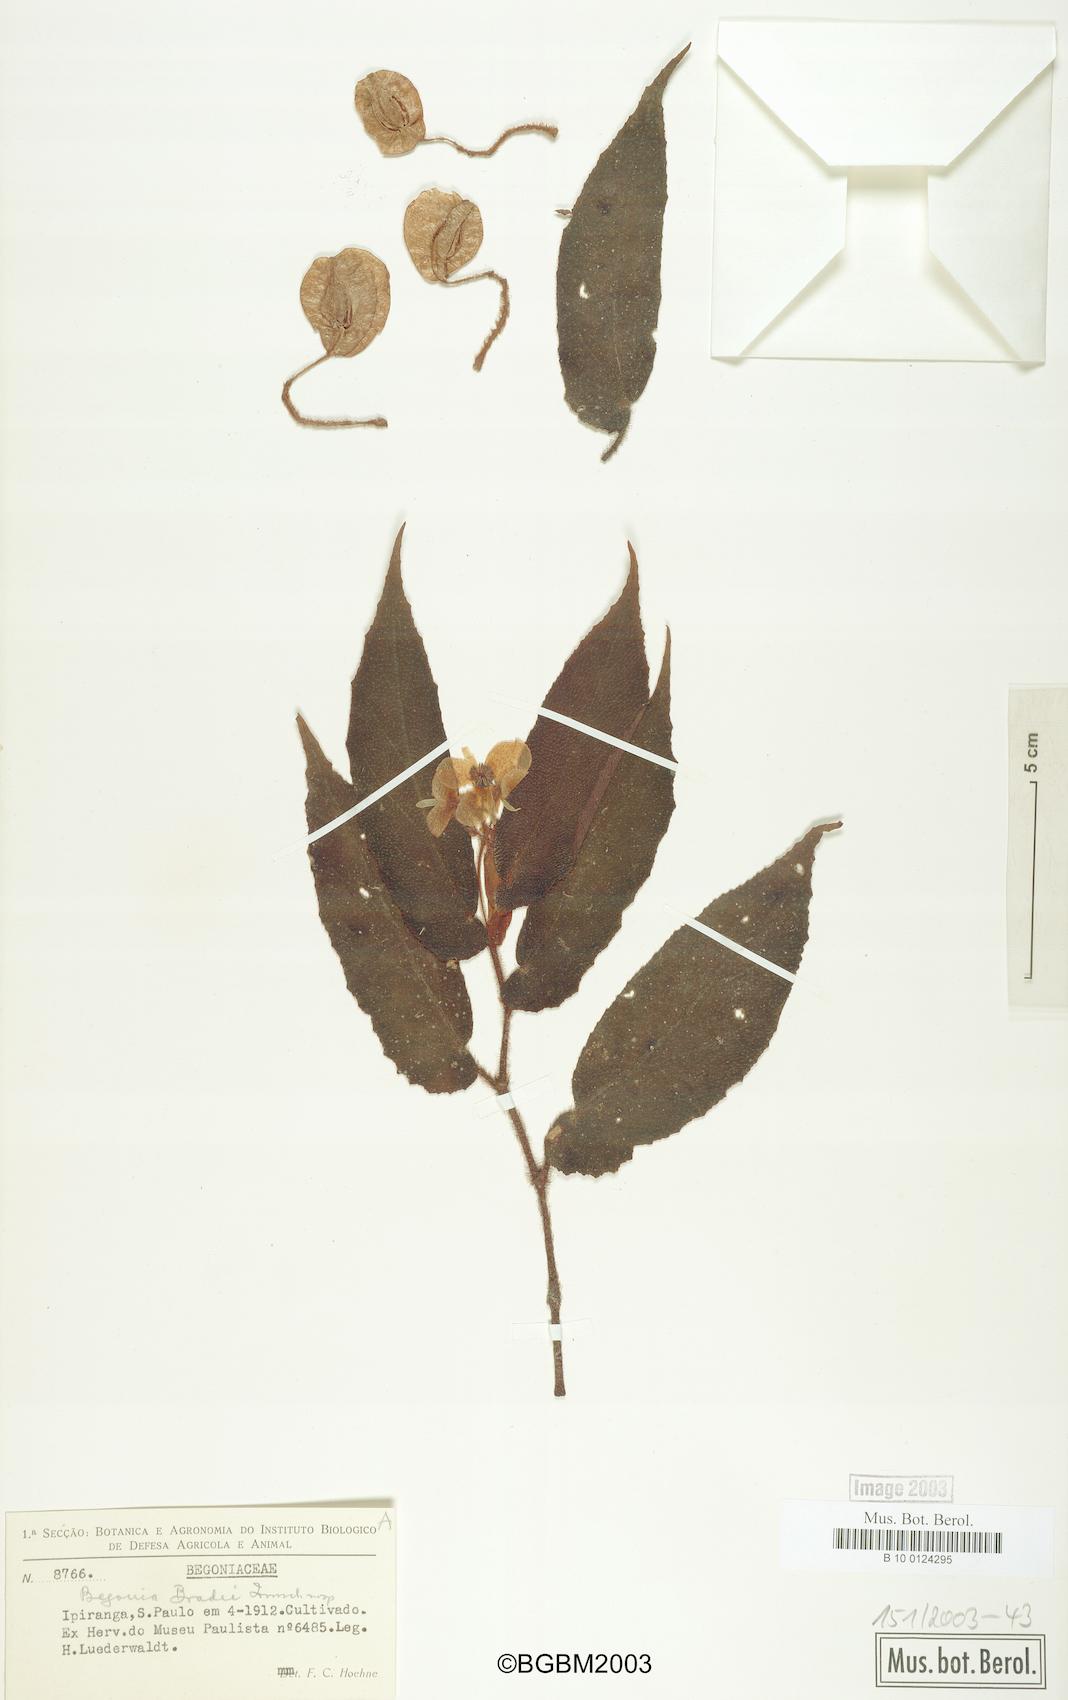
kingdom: Plantae
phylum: Tracheophyta
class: Magnoliopsida
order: Cucurbitales
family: Begoniaceae
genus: Begonia
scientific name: Begonia bradei
